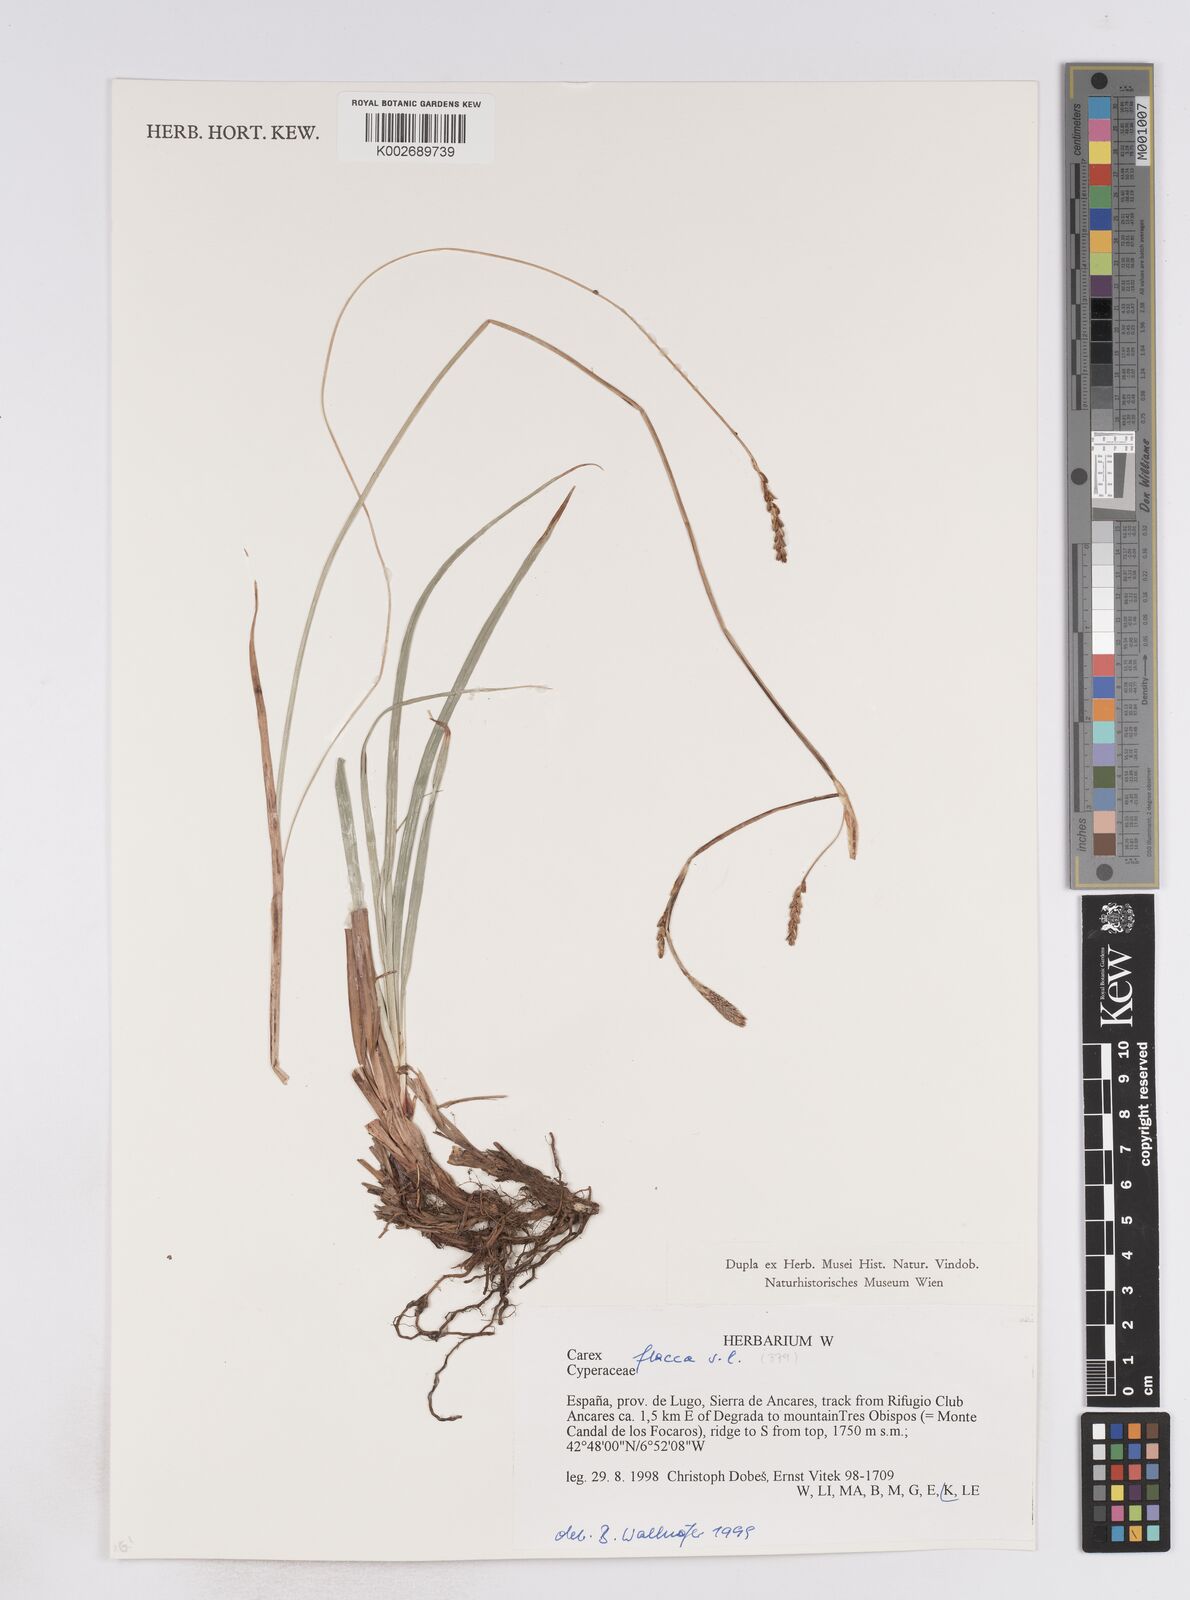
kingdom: Plantae
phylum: Tracheophyta
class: Liliopsida
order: Poales
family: Cyperaceae
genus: Carex
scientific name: Carex flacca
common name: Glaucous sedge
